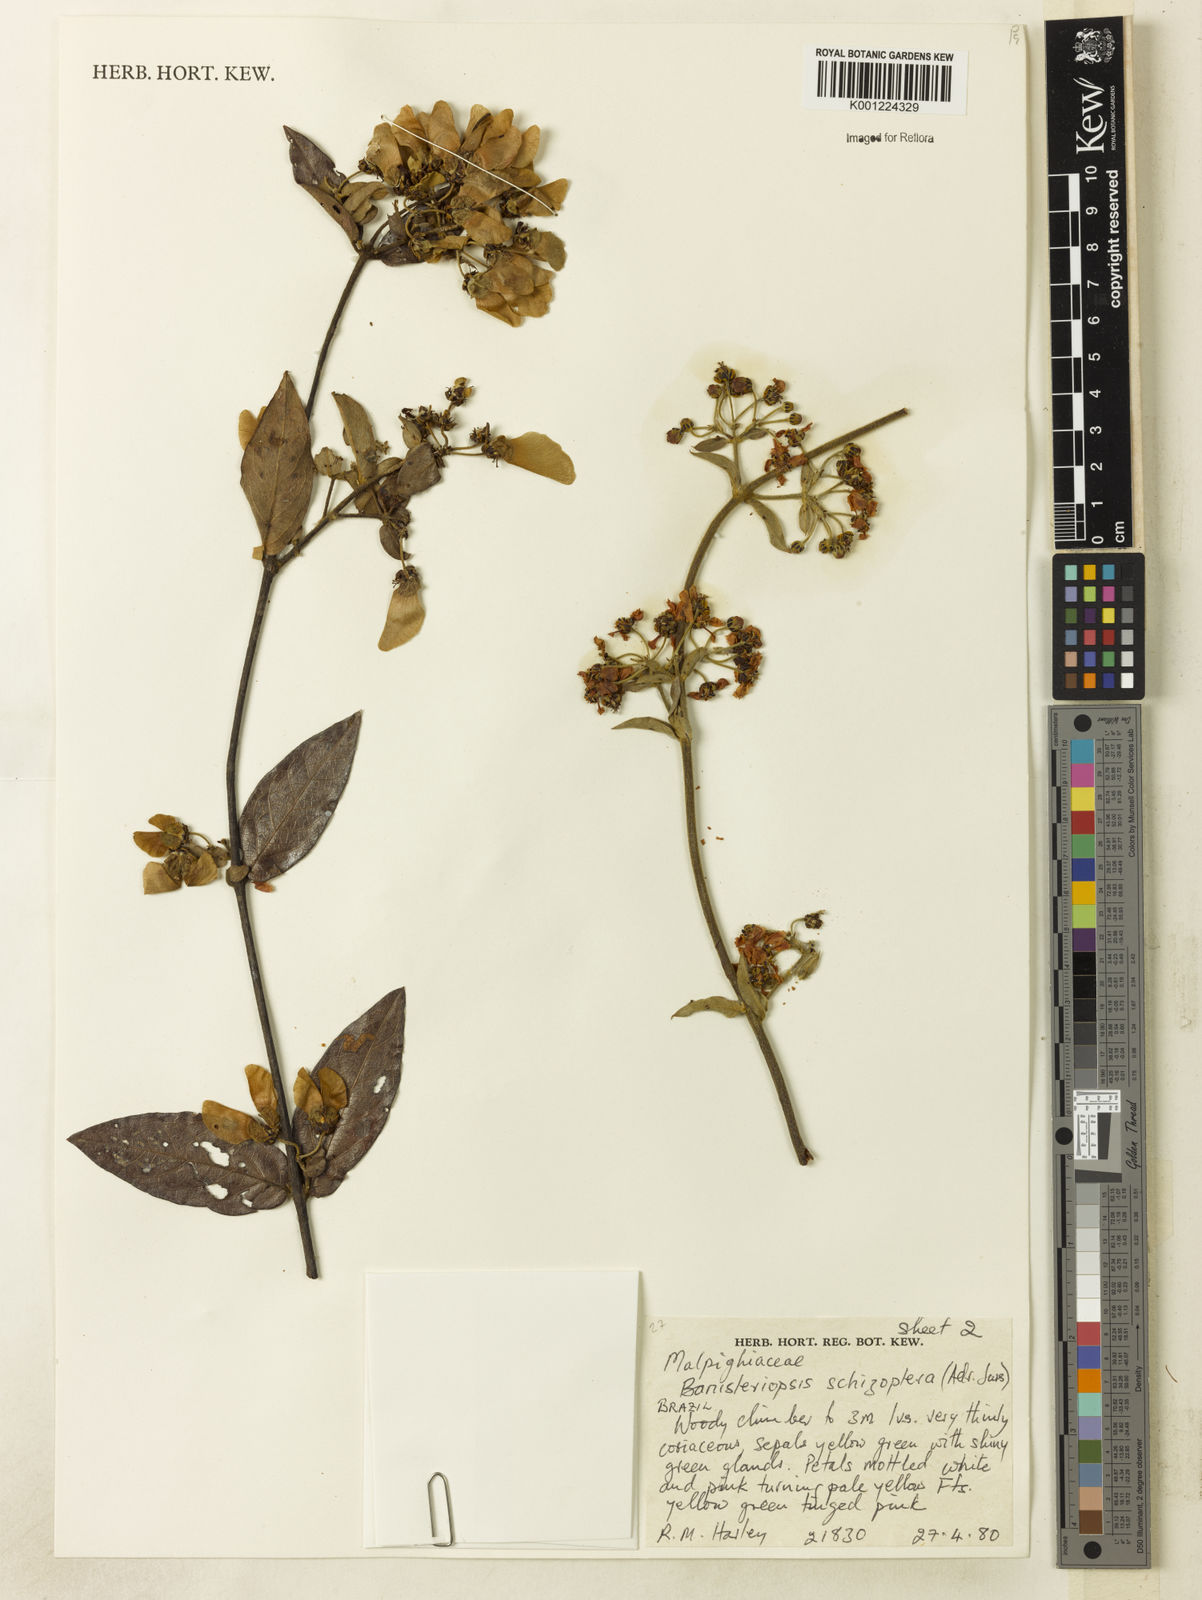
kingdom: Plantae
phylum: Tracheophyta
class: Magnoliopsida
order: Malpighiales
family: Malpighiaceae
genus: Banisteriopsis
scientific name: Banisteriopsis schizoptera
